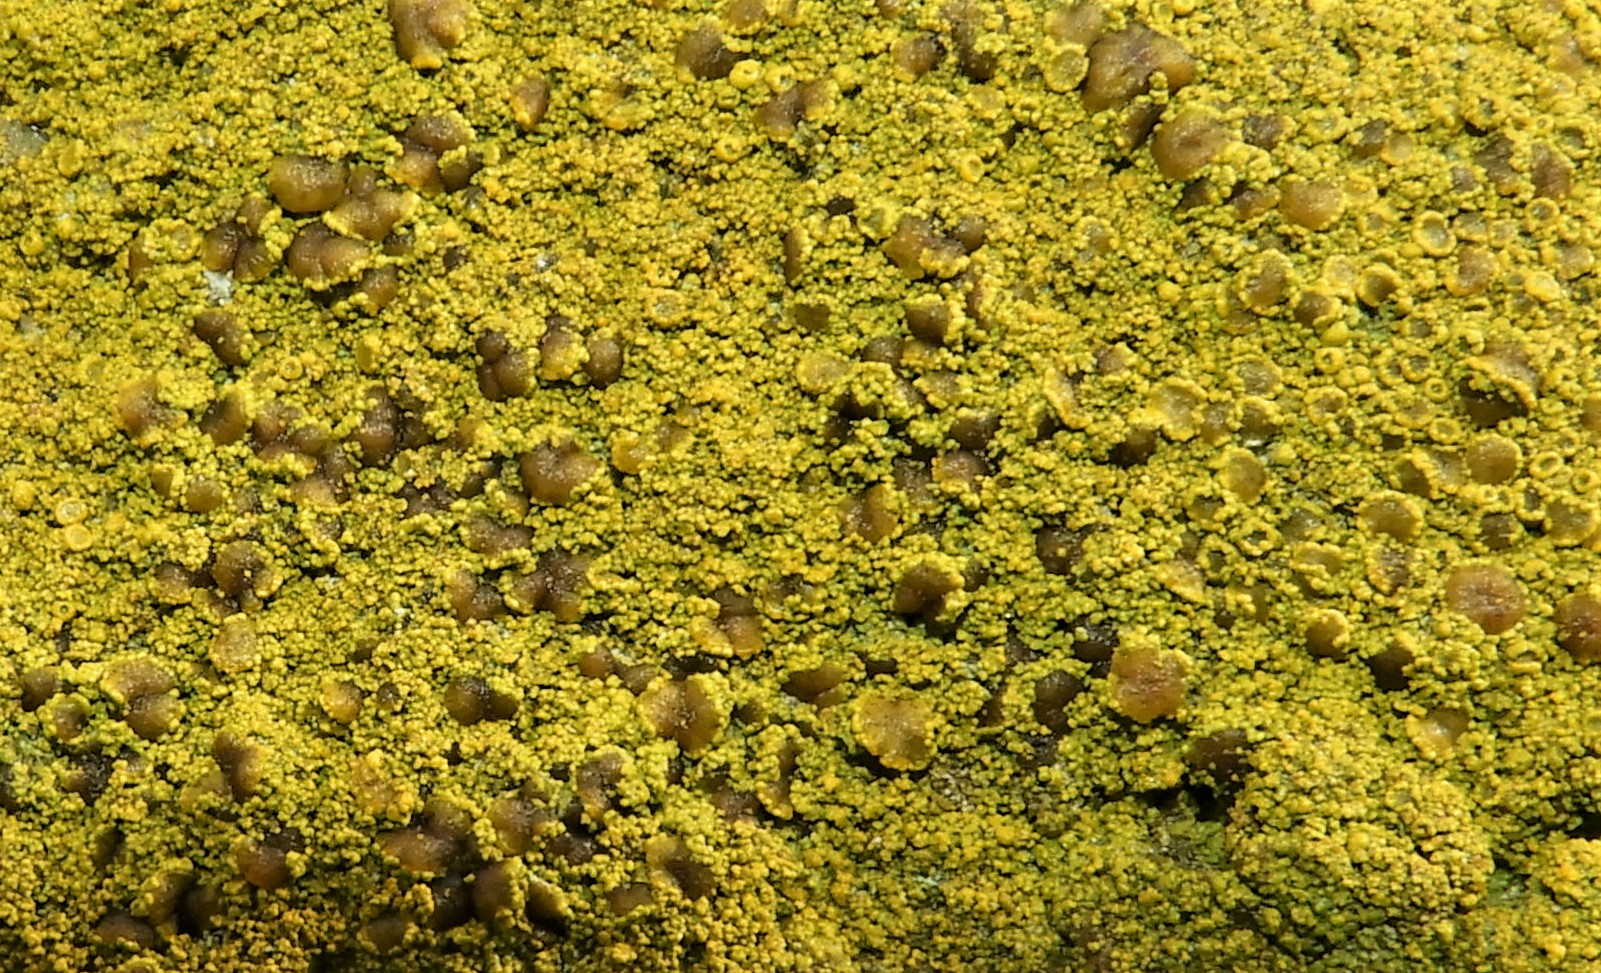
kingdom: Fungi
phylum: Ascomycota
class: Candelariomycetes
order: Candelariales
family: Candelariaceae
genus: Candelariella
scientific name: Candelariella vitellina
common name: almindelig æggeblommelav
